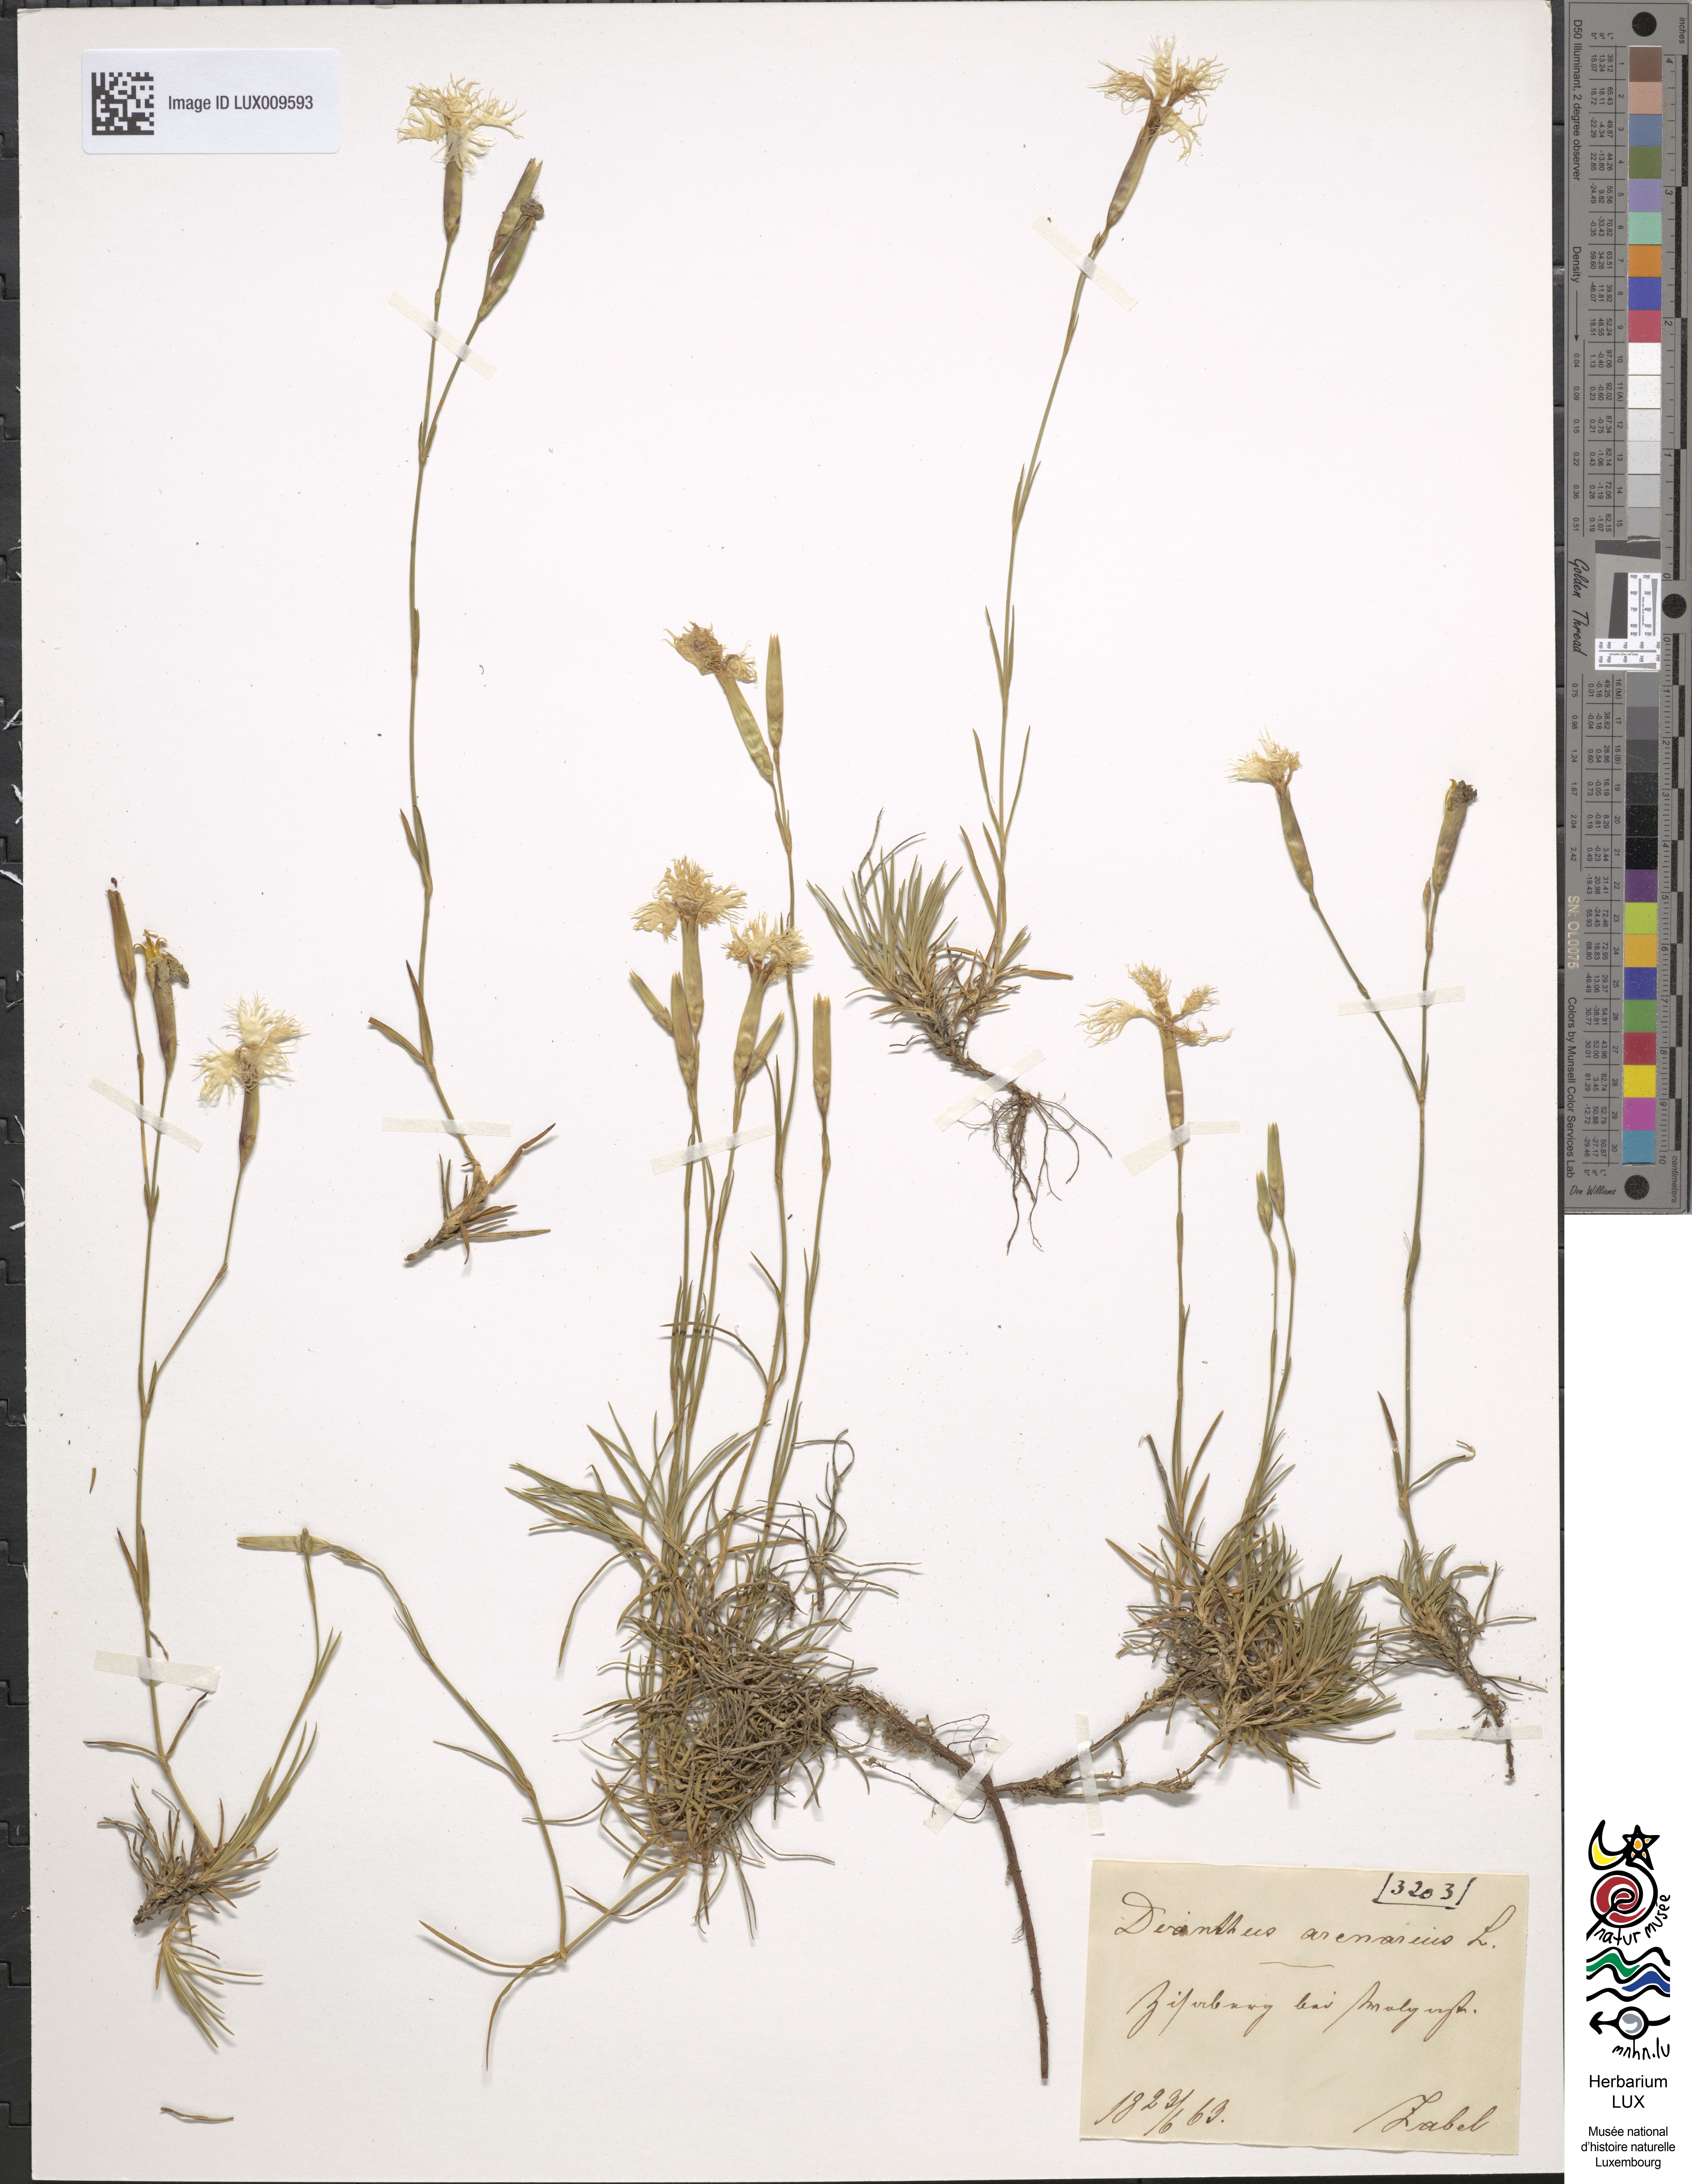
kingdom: Plantae
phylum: Tracheophyta
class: Magnoliopsida
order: Caryophyllales
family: Caryophyllaceae
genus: Dianthus
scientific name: Dianthus arenarius
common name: Stone pink
